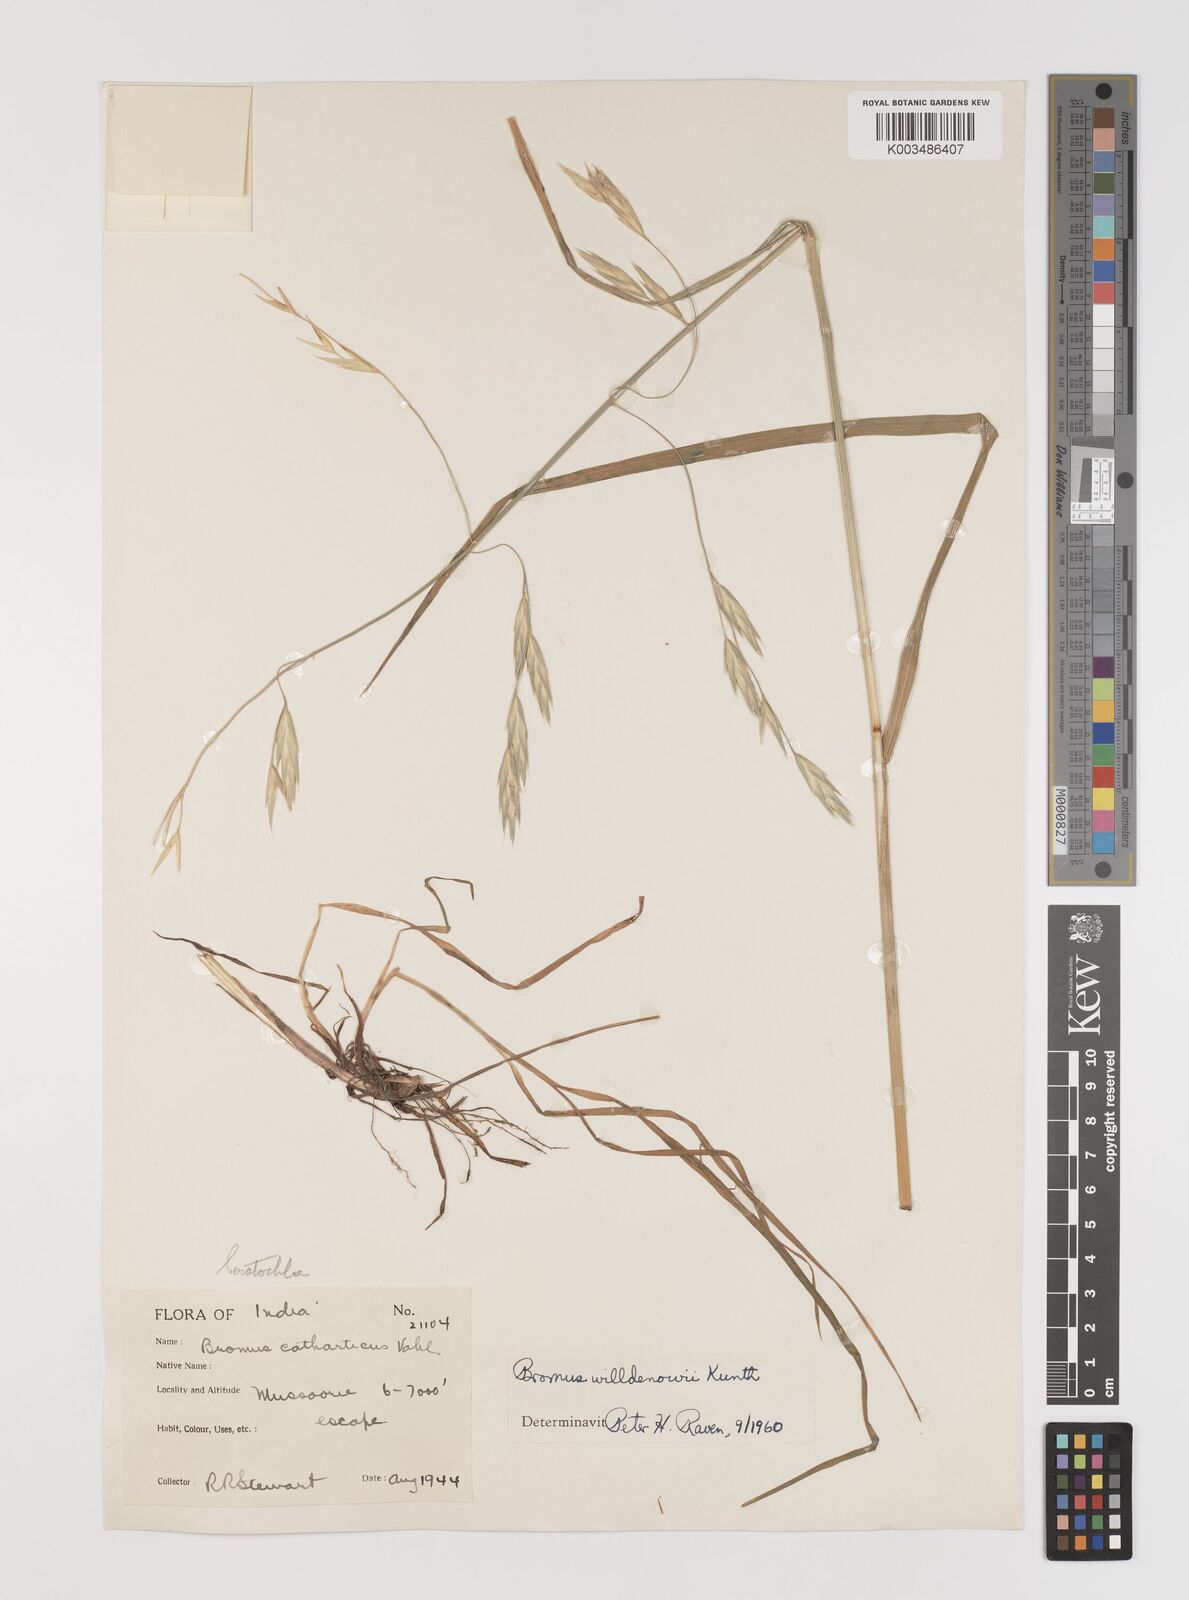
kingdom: Plantae
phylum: Tracheophyta
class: Liliopsida
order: Poales
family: Poaceae
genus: Bromus
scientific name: Bromus catharticus
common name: Rescuegrass
